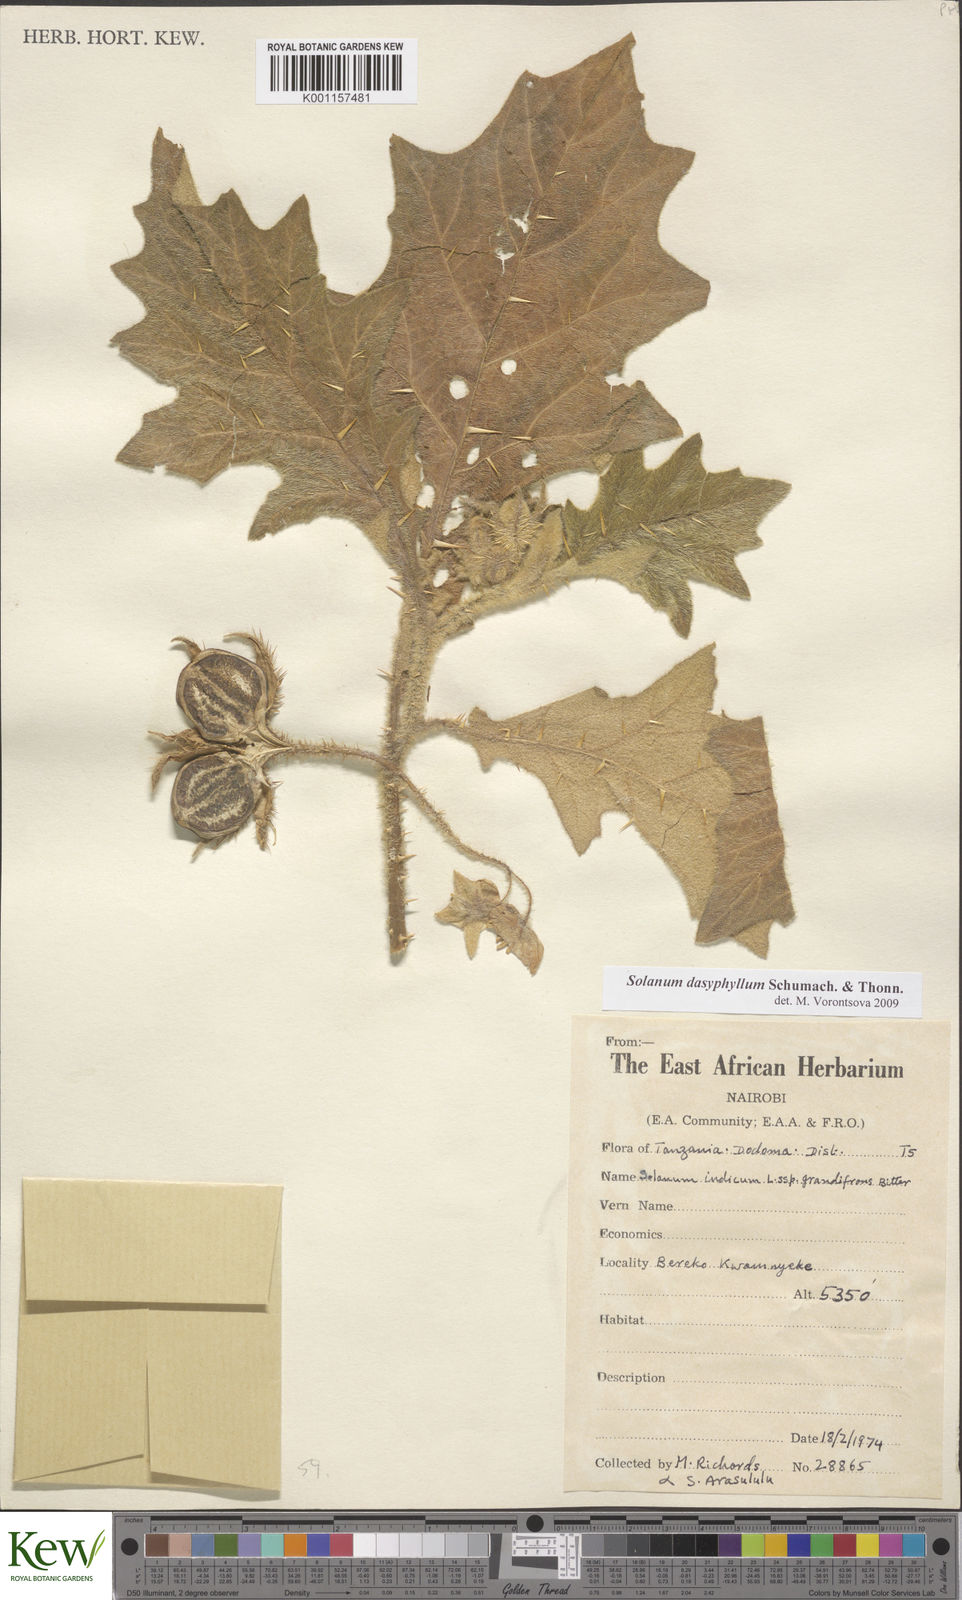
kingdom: Plantae
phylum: Tracheophyta
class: Magnoliopsida
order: Solanales
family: Solanaceae
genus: Solanum
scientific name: Solanum dasyphyllum
